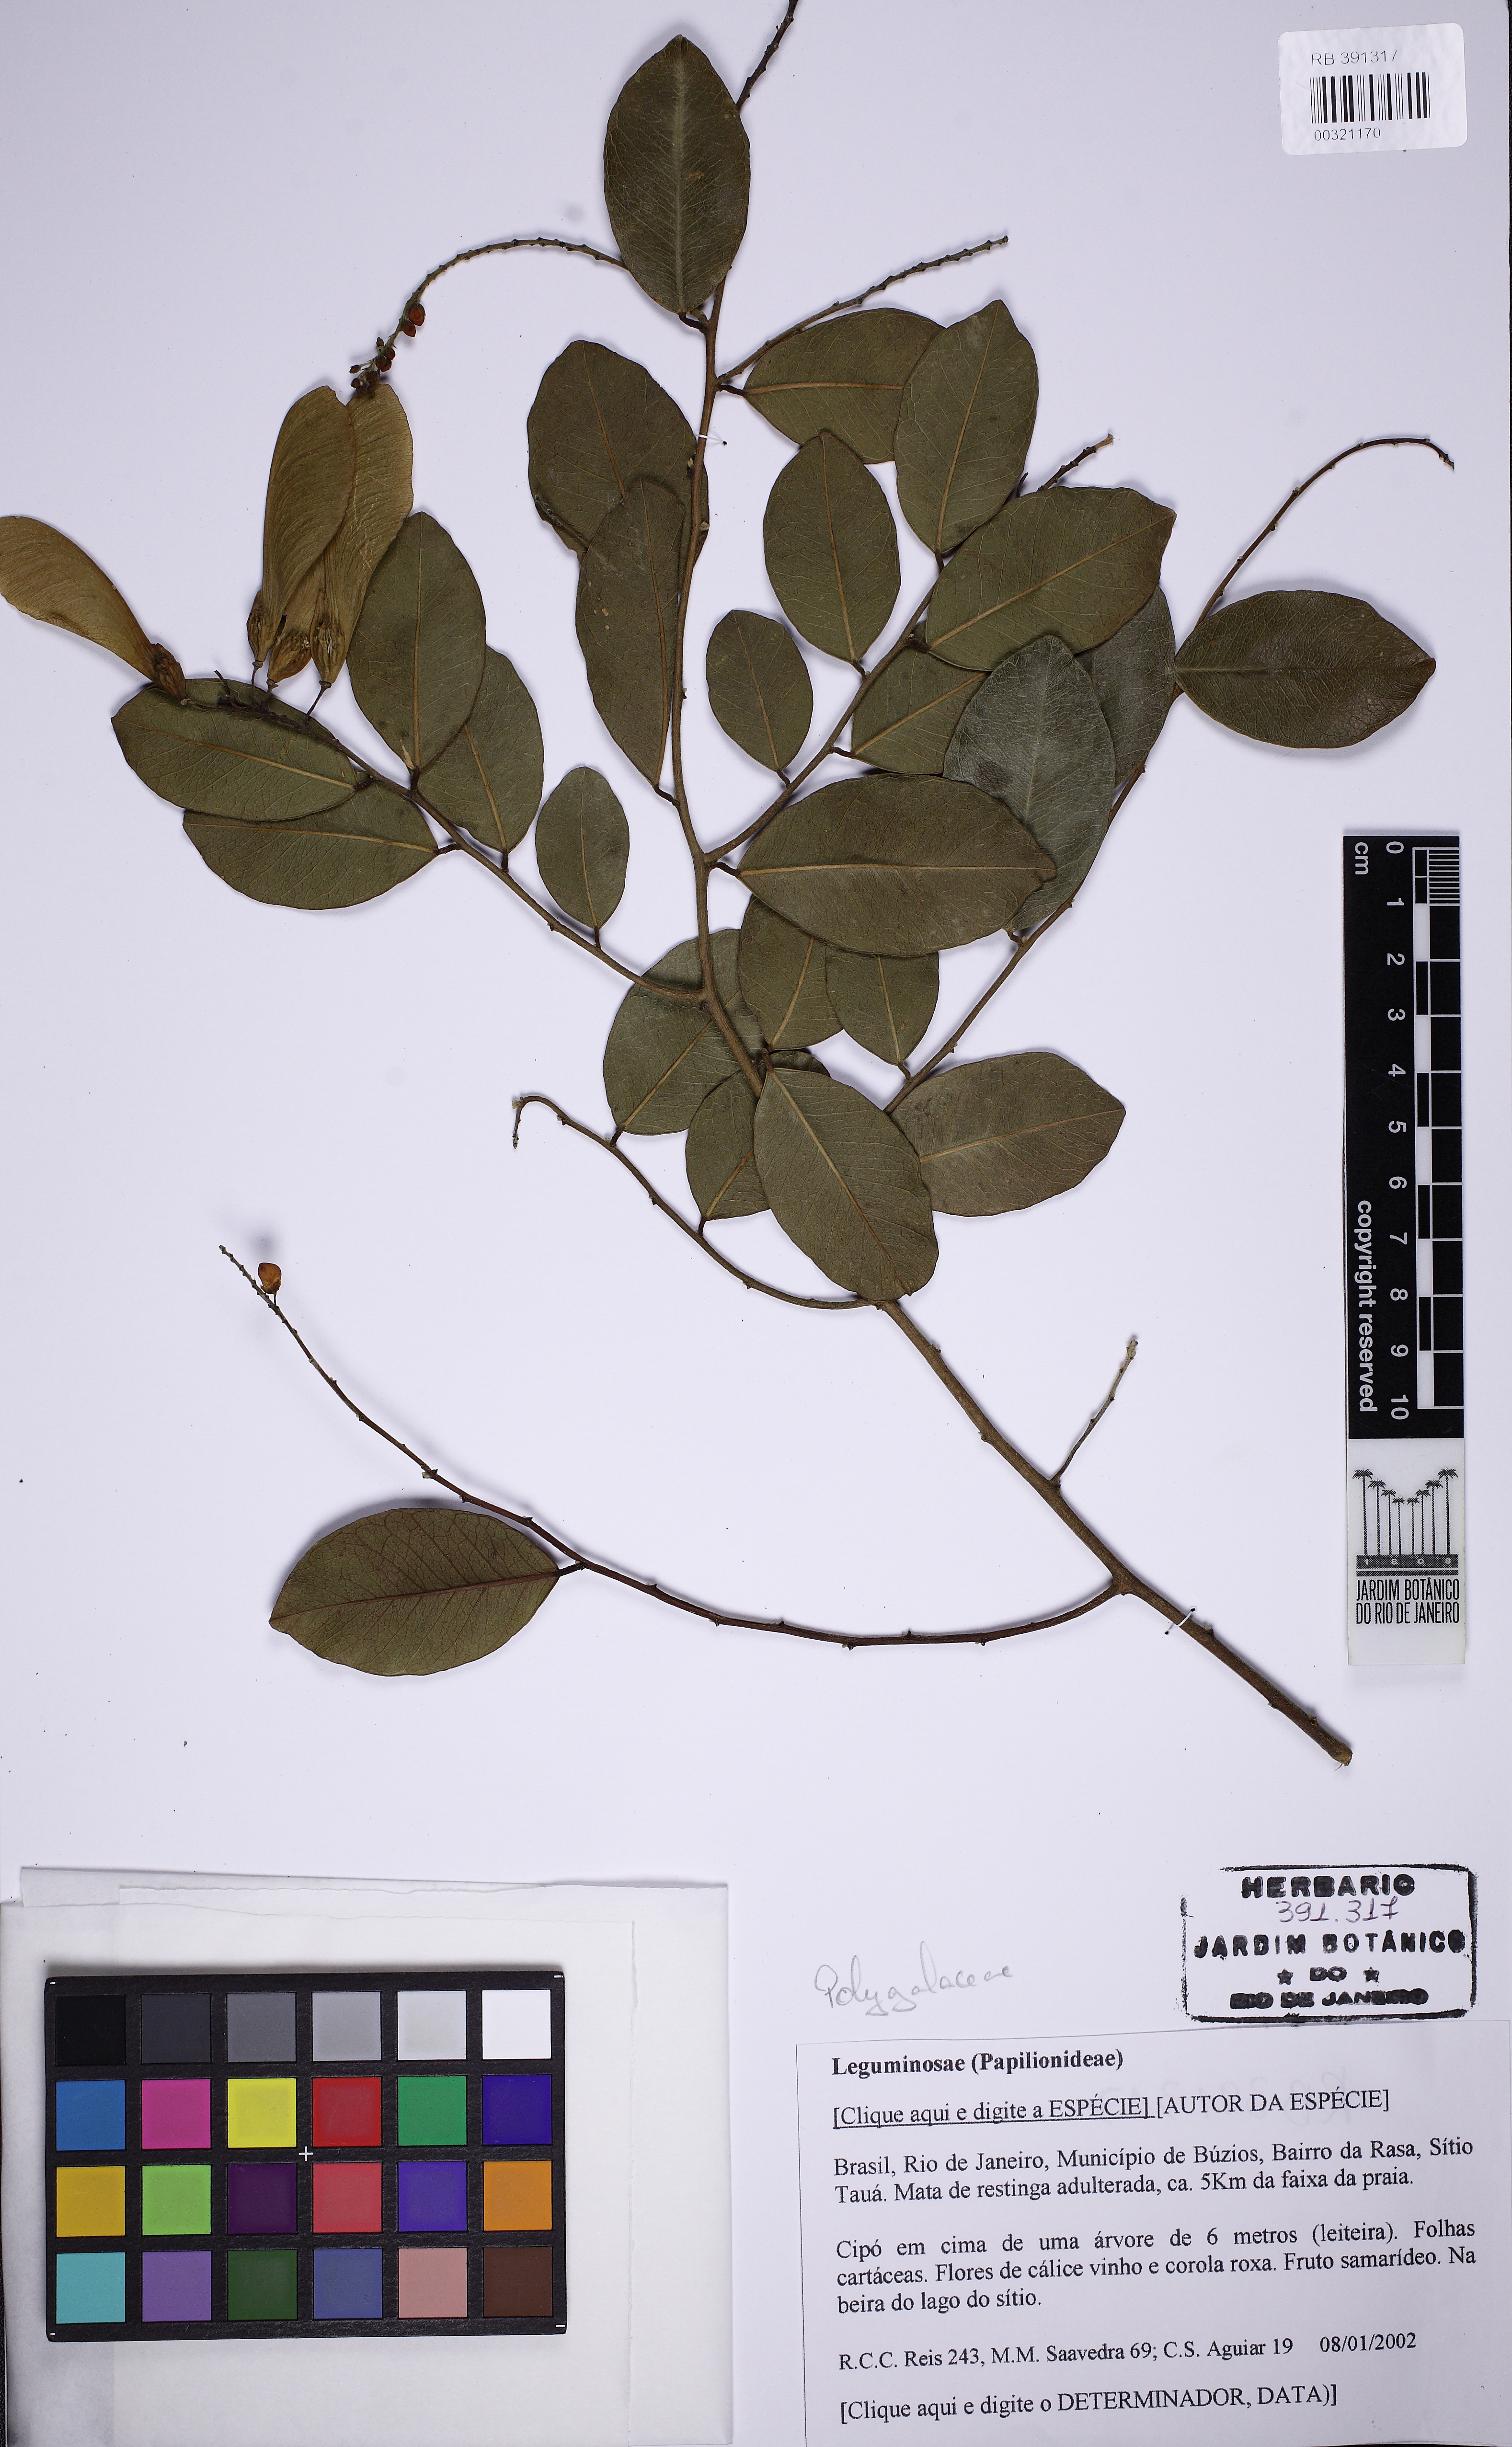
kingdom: Plantae
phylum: Tracheophyta
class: Magnoliopsida
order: Fabales
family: Polygalaceae
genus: Securidaca
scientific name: Securidaca
